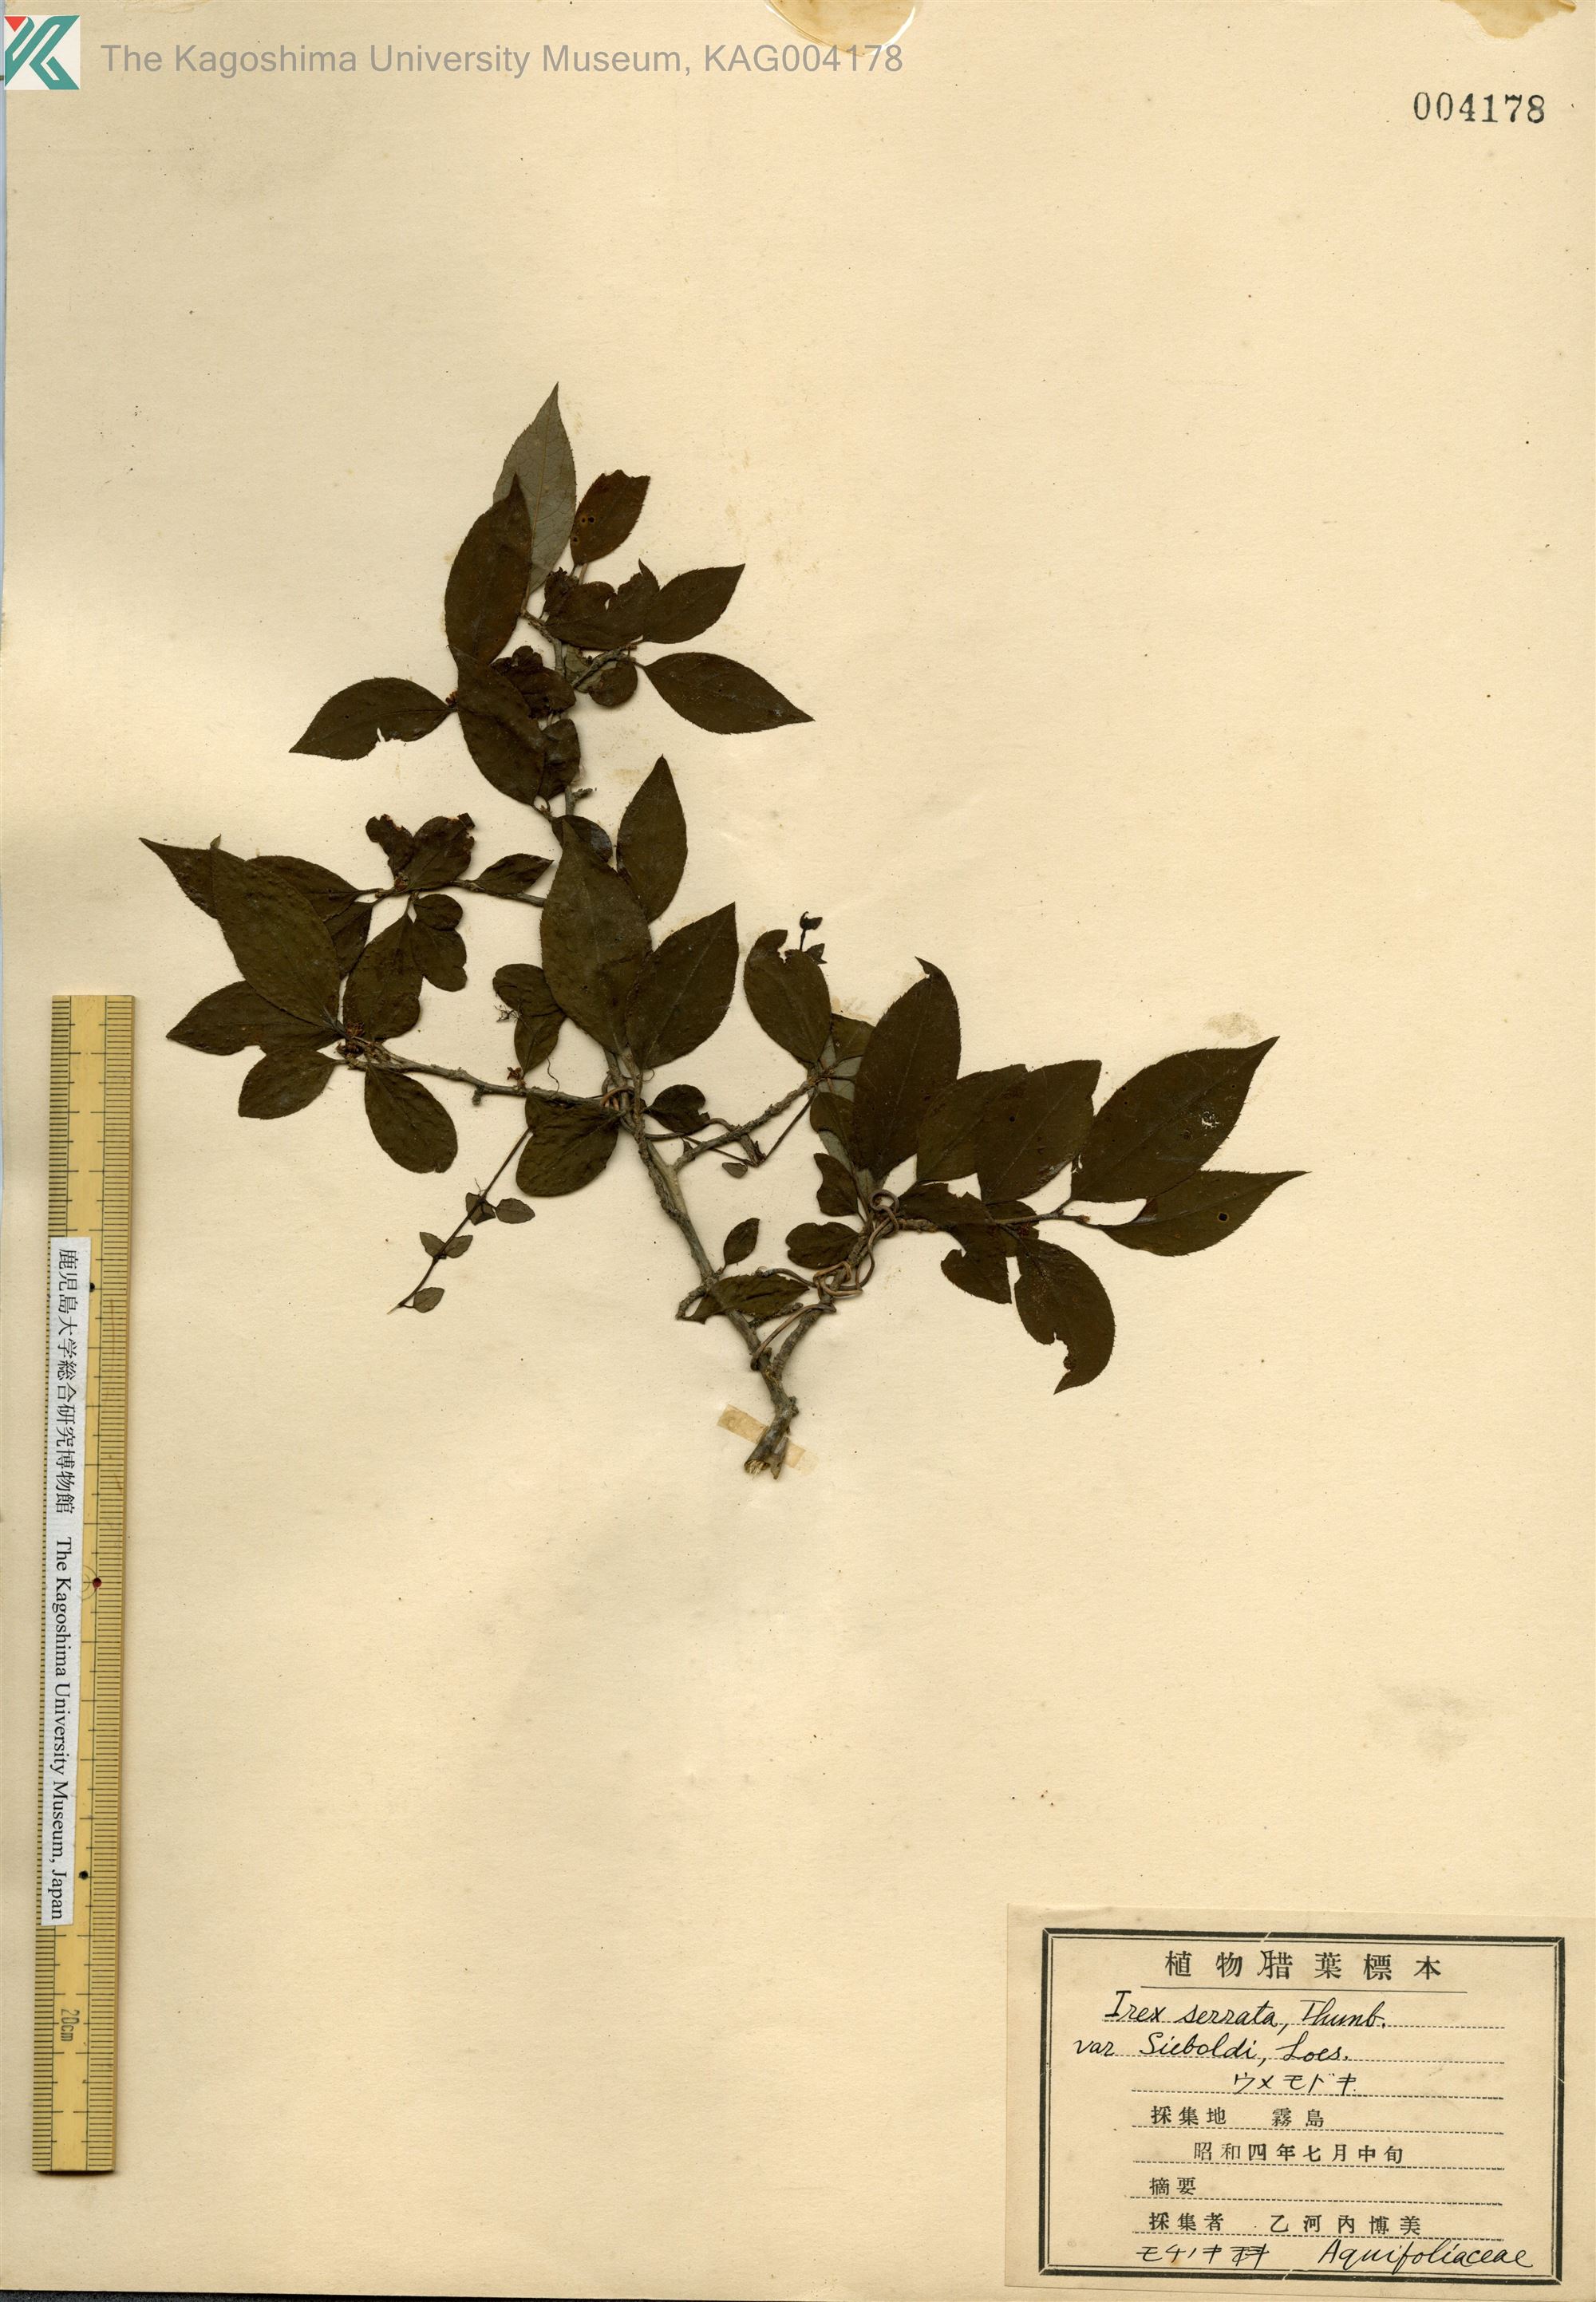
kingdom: Plantae
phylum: Tracheophyta
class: Magnoliopsida
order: Aquifoliales
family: Aquifoliaceae
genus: Ilex
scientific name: Ilex serrata
